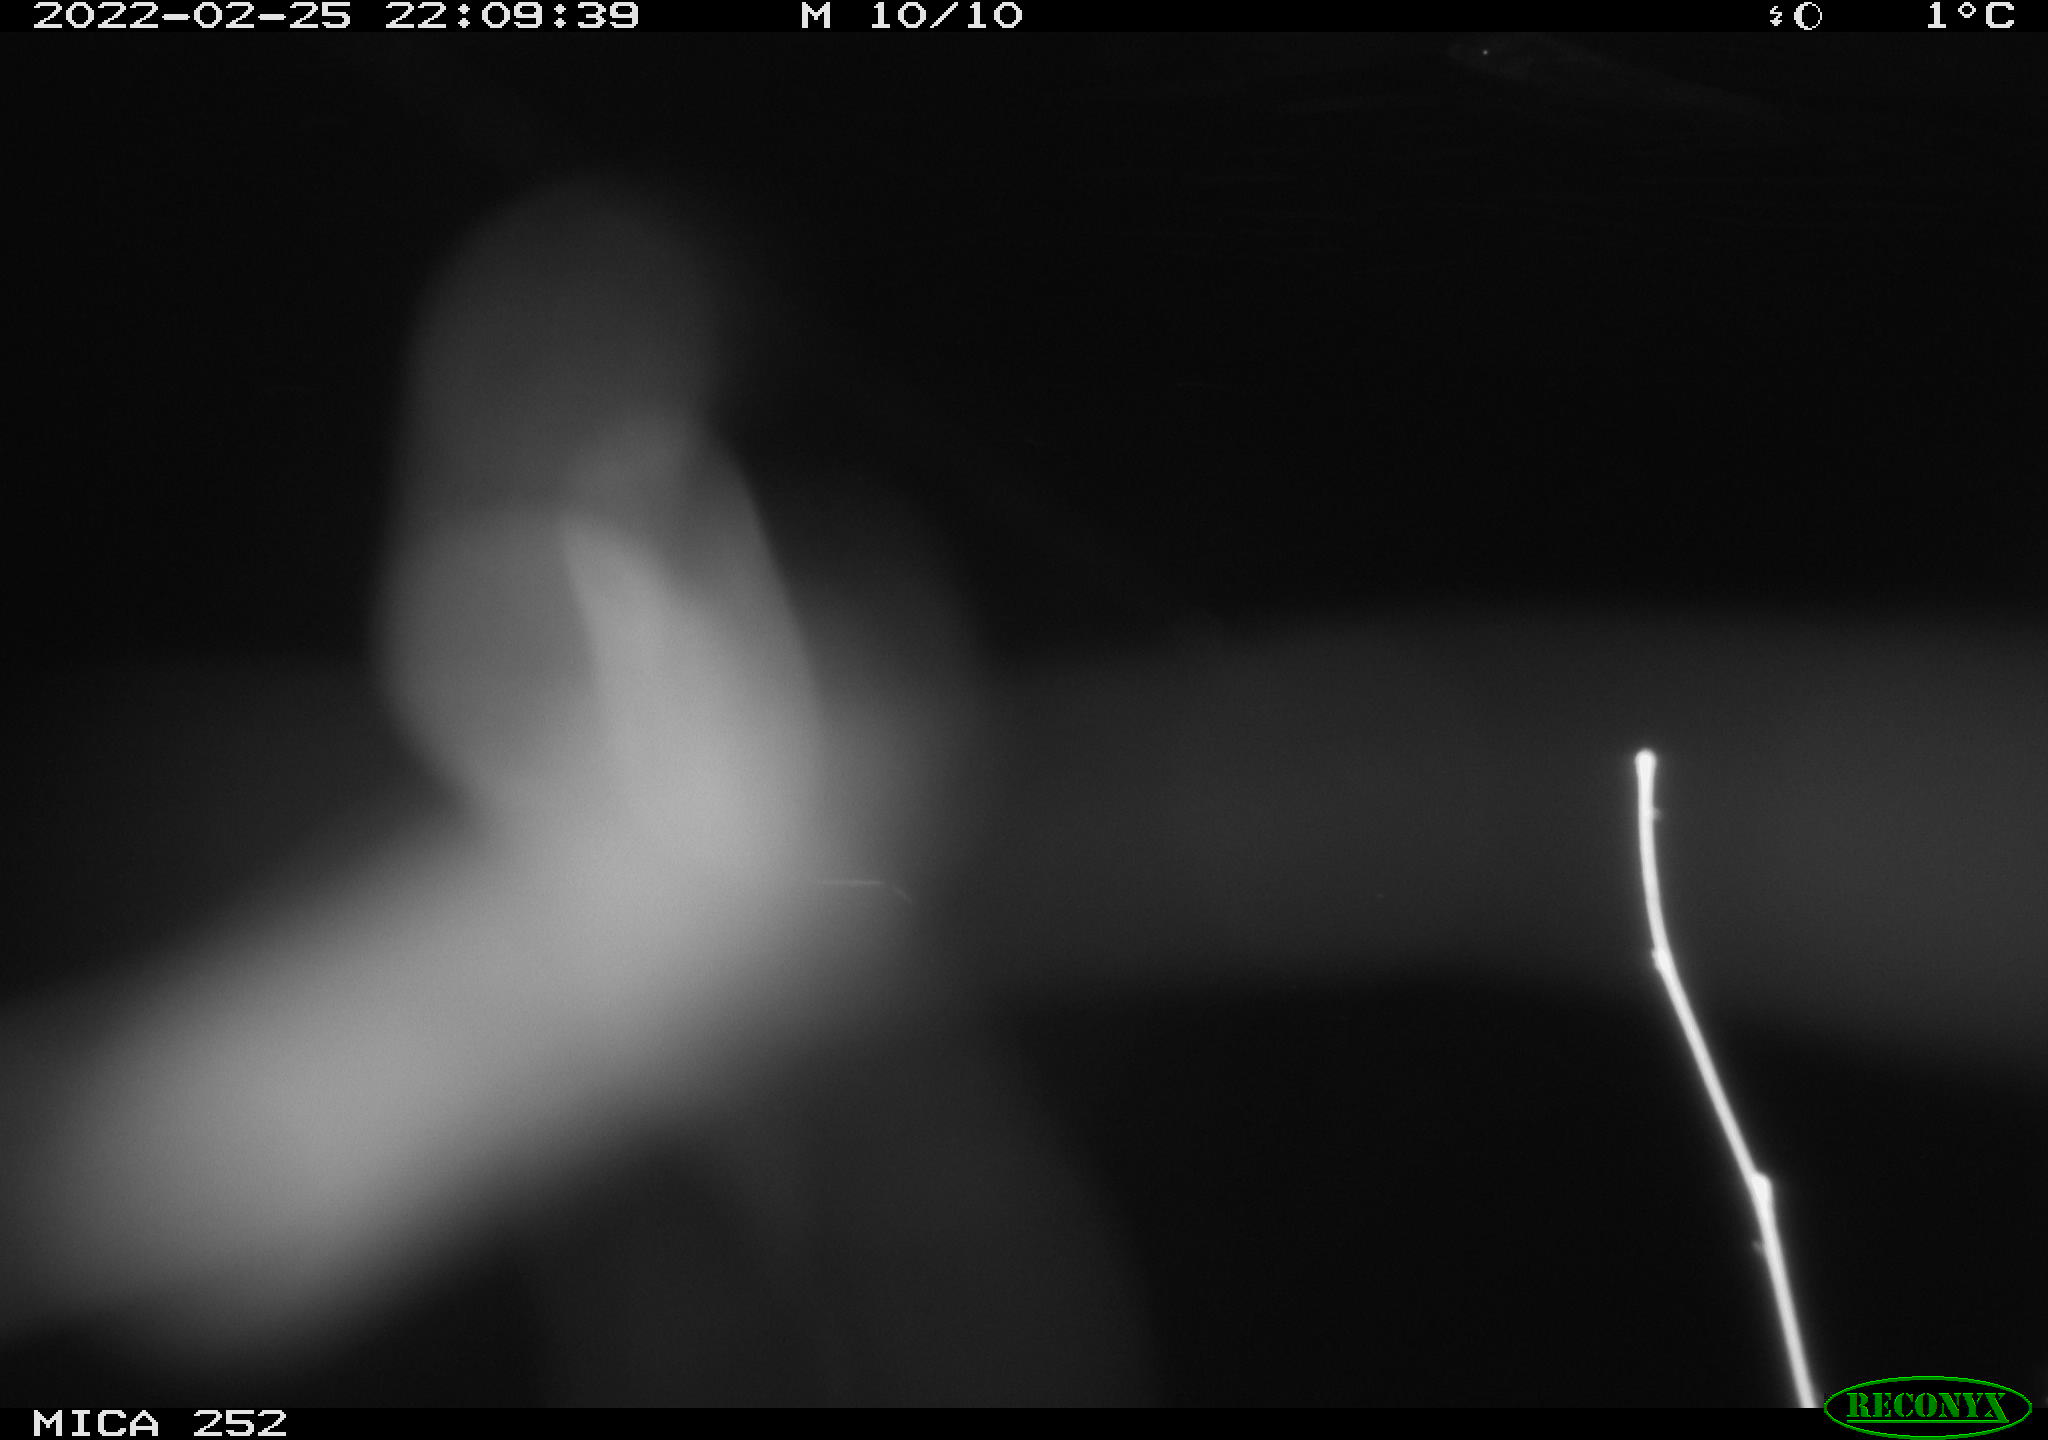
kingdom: Animalia
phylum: Chordata
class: Mammalia
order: Rodentia
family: Castoridae
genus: Castor
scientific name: Castor fiber
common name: Eurasian beaver
